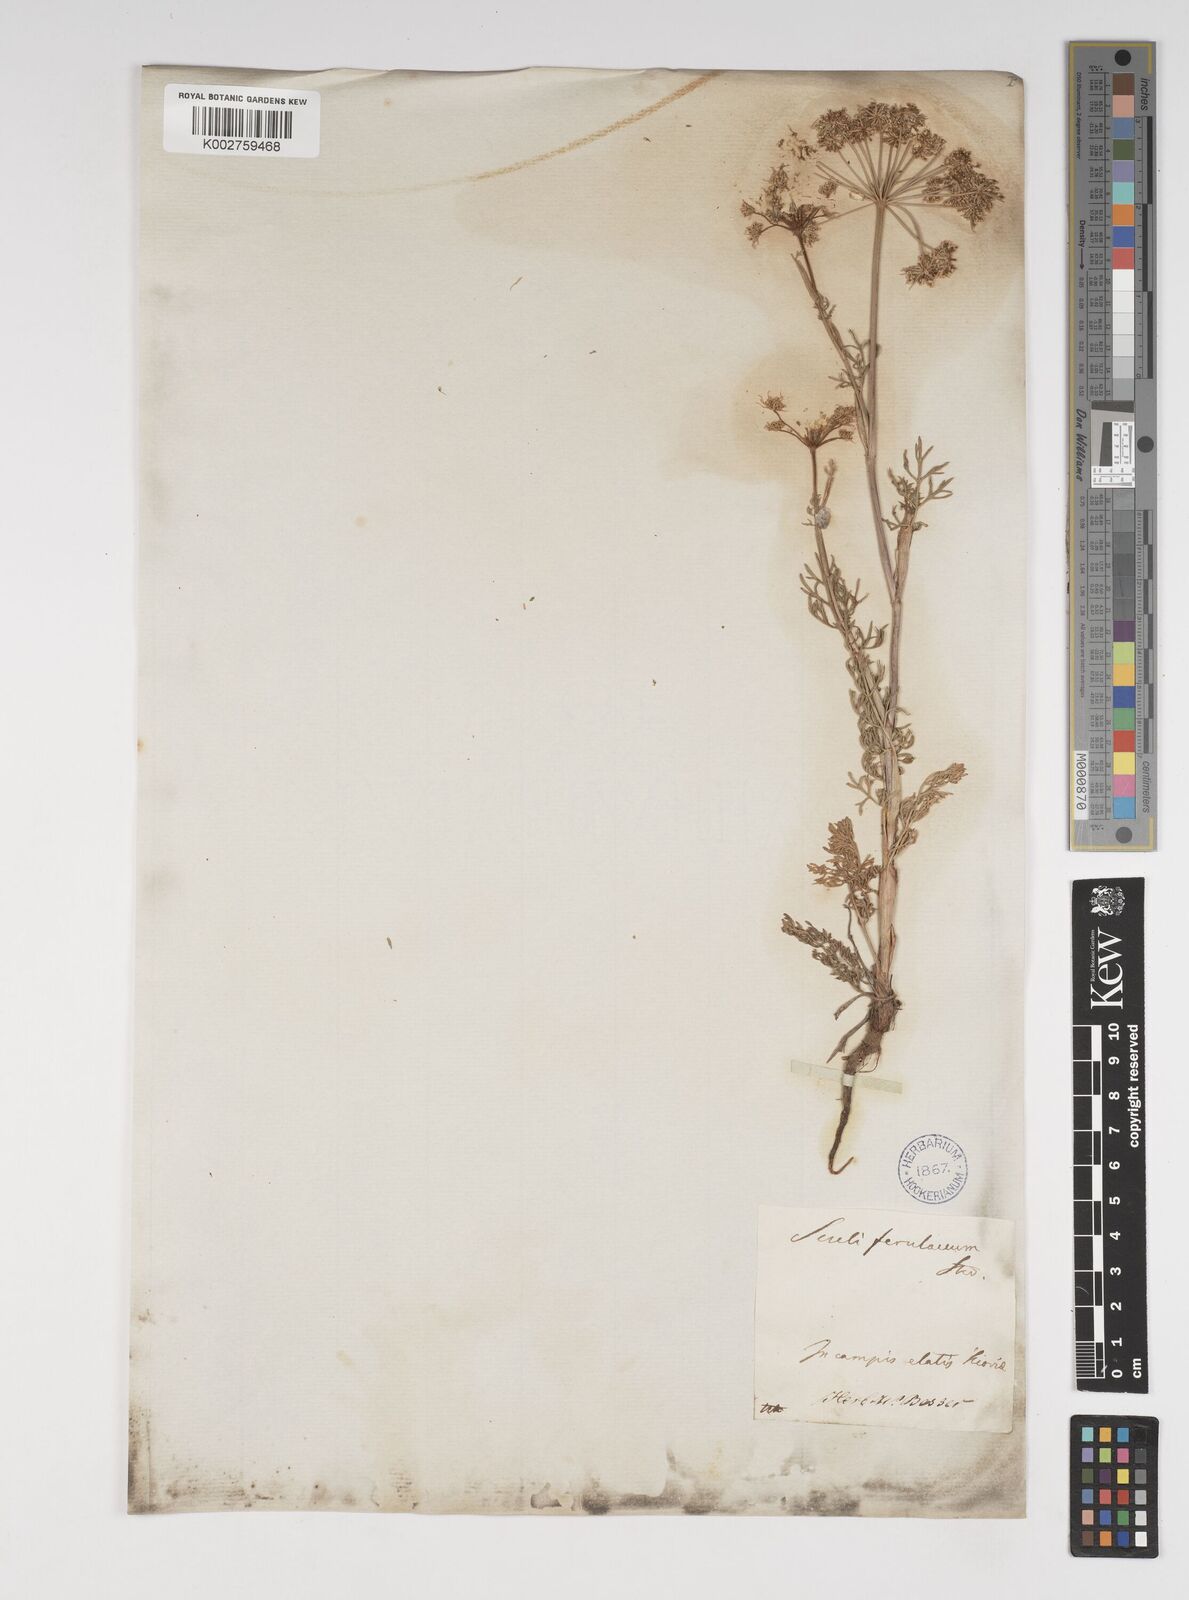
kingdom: Plantae
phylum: Tracheophyta
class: Magnoliopsida
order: Apiales
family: Apiaceae
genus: Selinum
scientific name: Selinum
